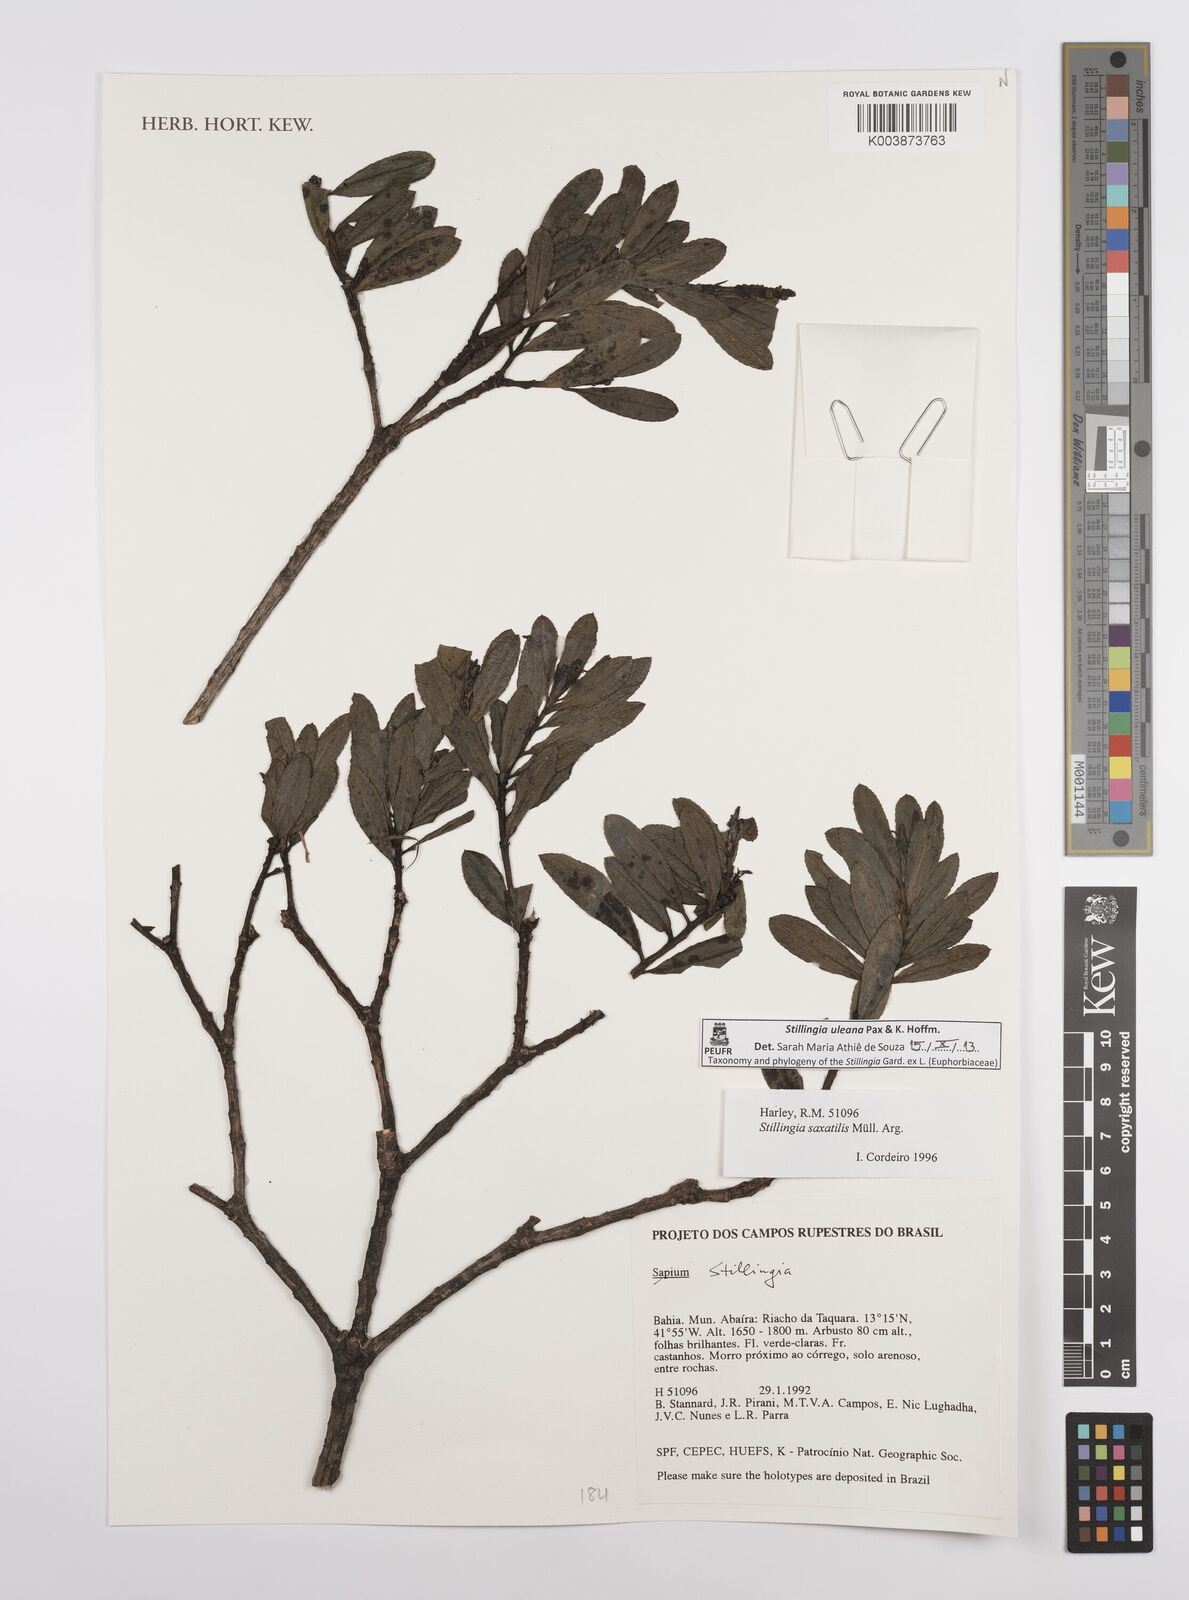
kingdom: Plantae
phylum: Tracheophyta
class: Magnoliopsida
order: Malpighiales
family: Euphorbiaceae
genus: Stillingia
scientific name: Stillingia uleana
